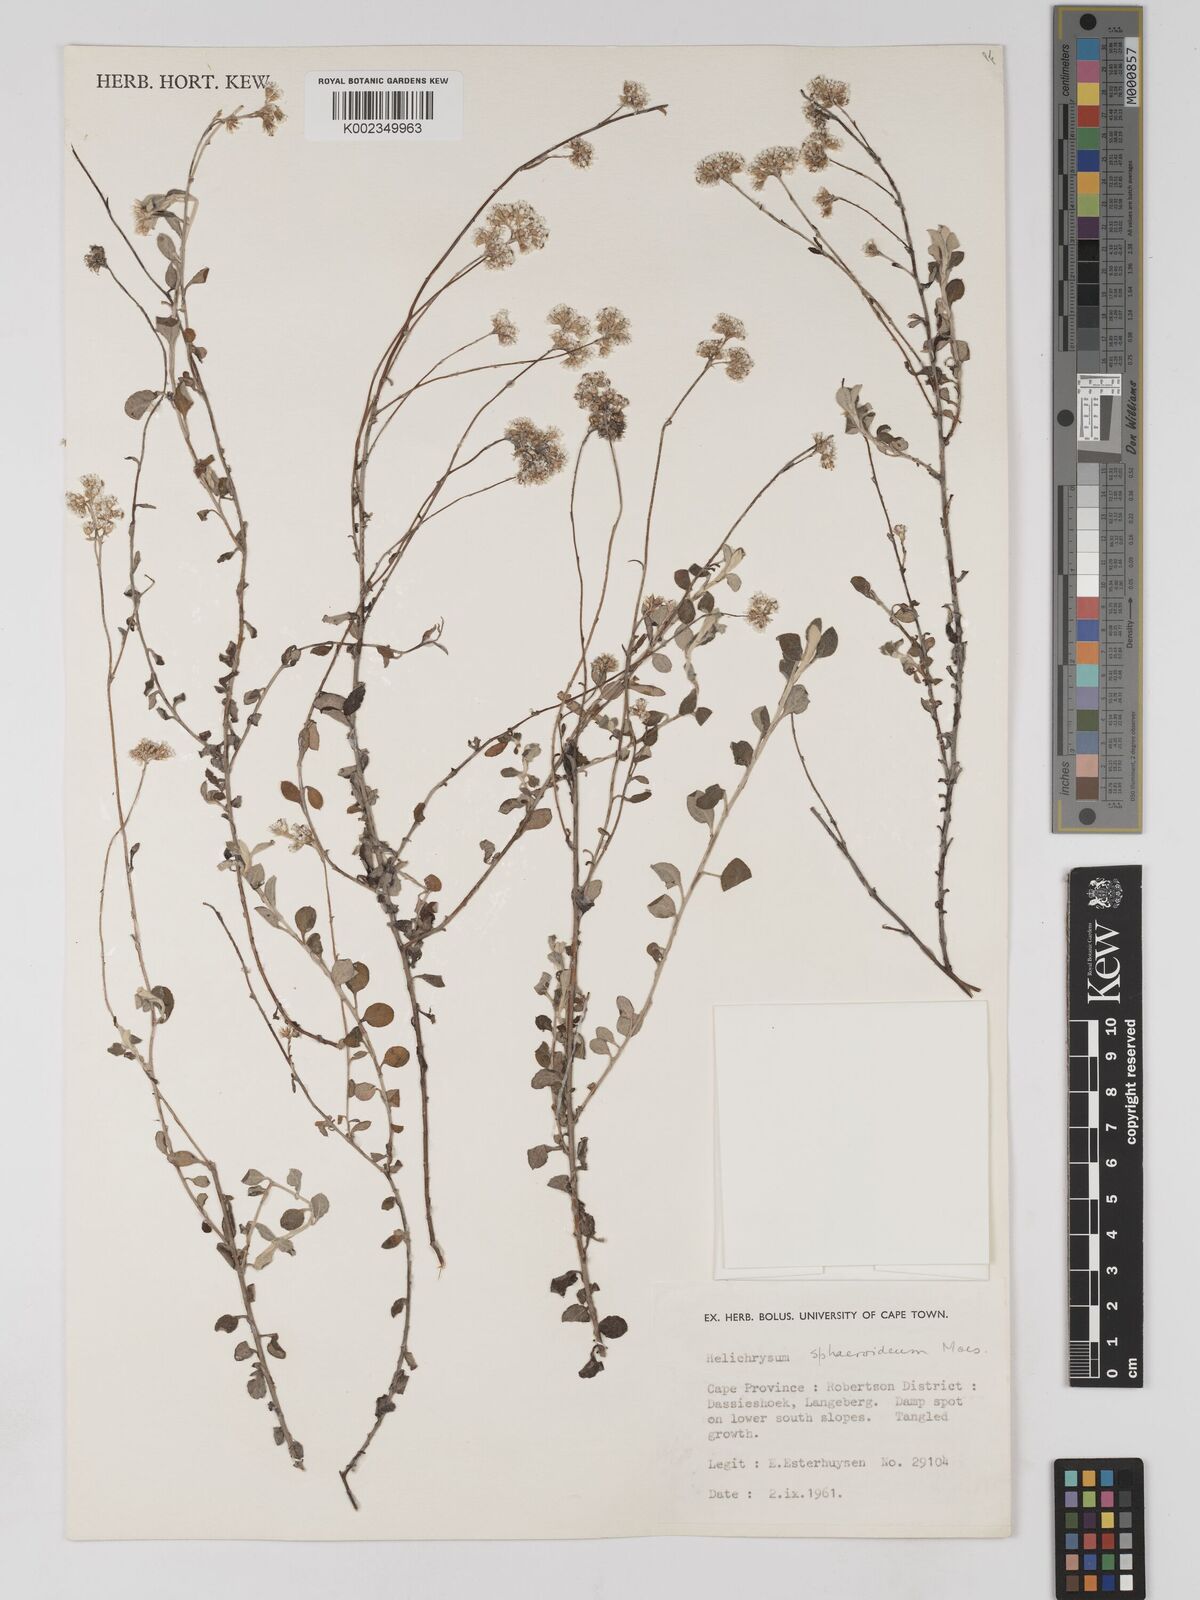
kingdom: Plantae
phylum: Tracheophyta
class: Magnoliopsida
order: Asterales
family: Asteraceae
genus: Helichrysum
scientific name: Helichrysum sphaeroideum
